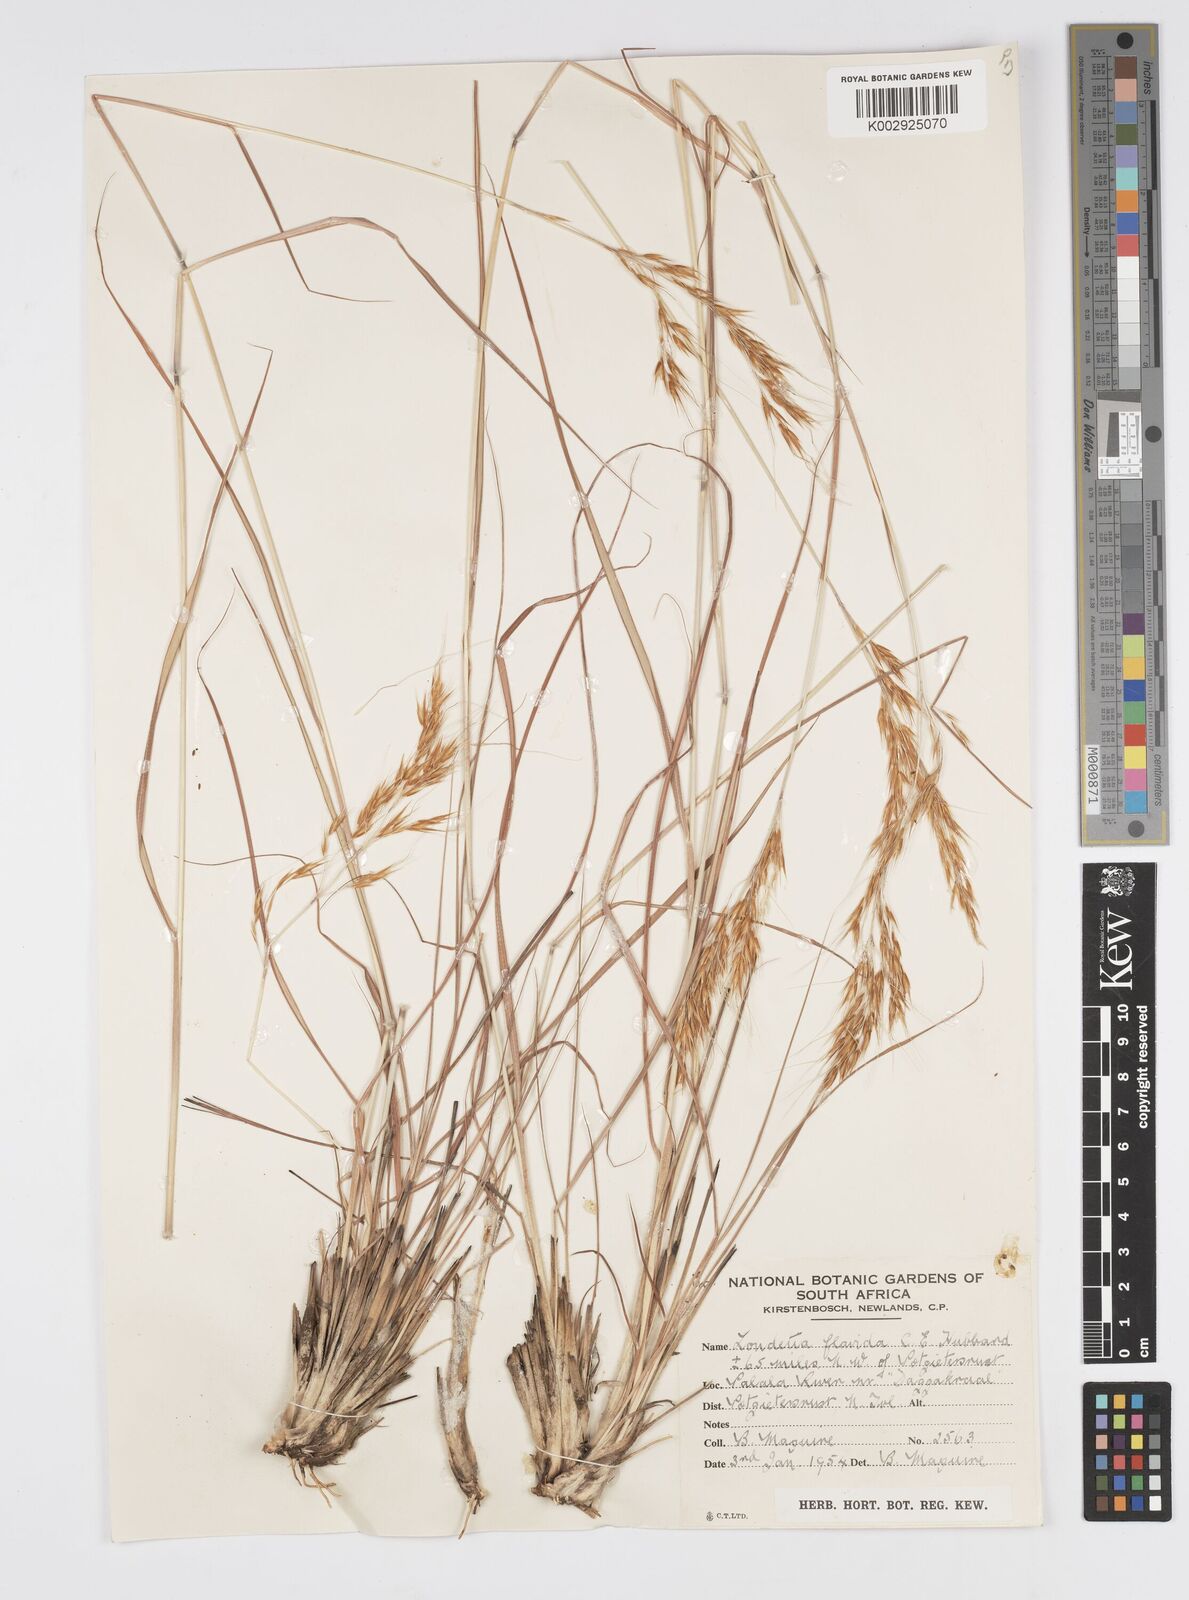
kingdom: Plantae
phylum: Tracheophyta
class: Liliopsida
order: Poales
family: Poaceae
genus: Loudetia
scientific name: Loudetia flavida
